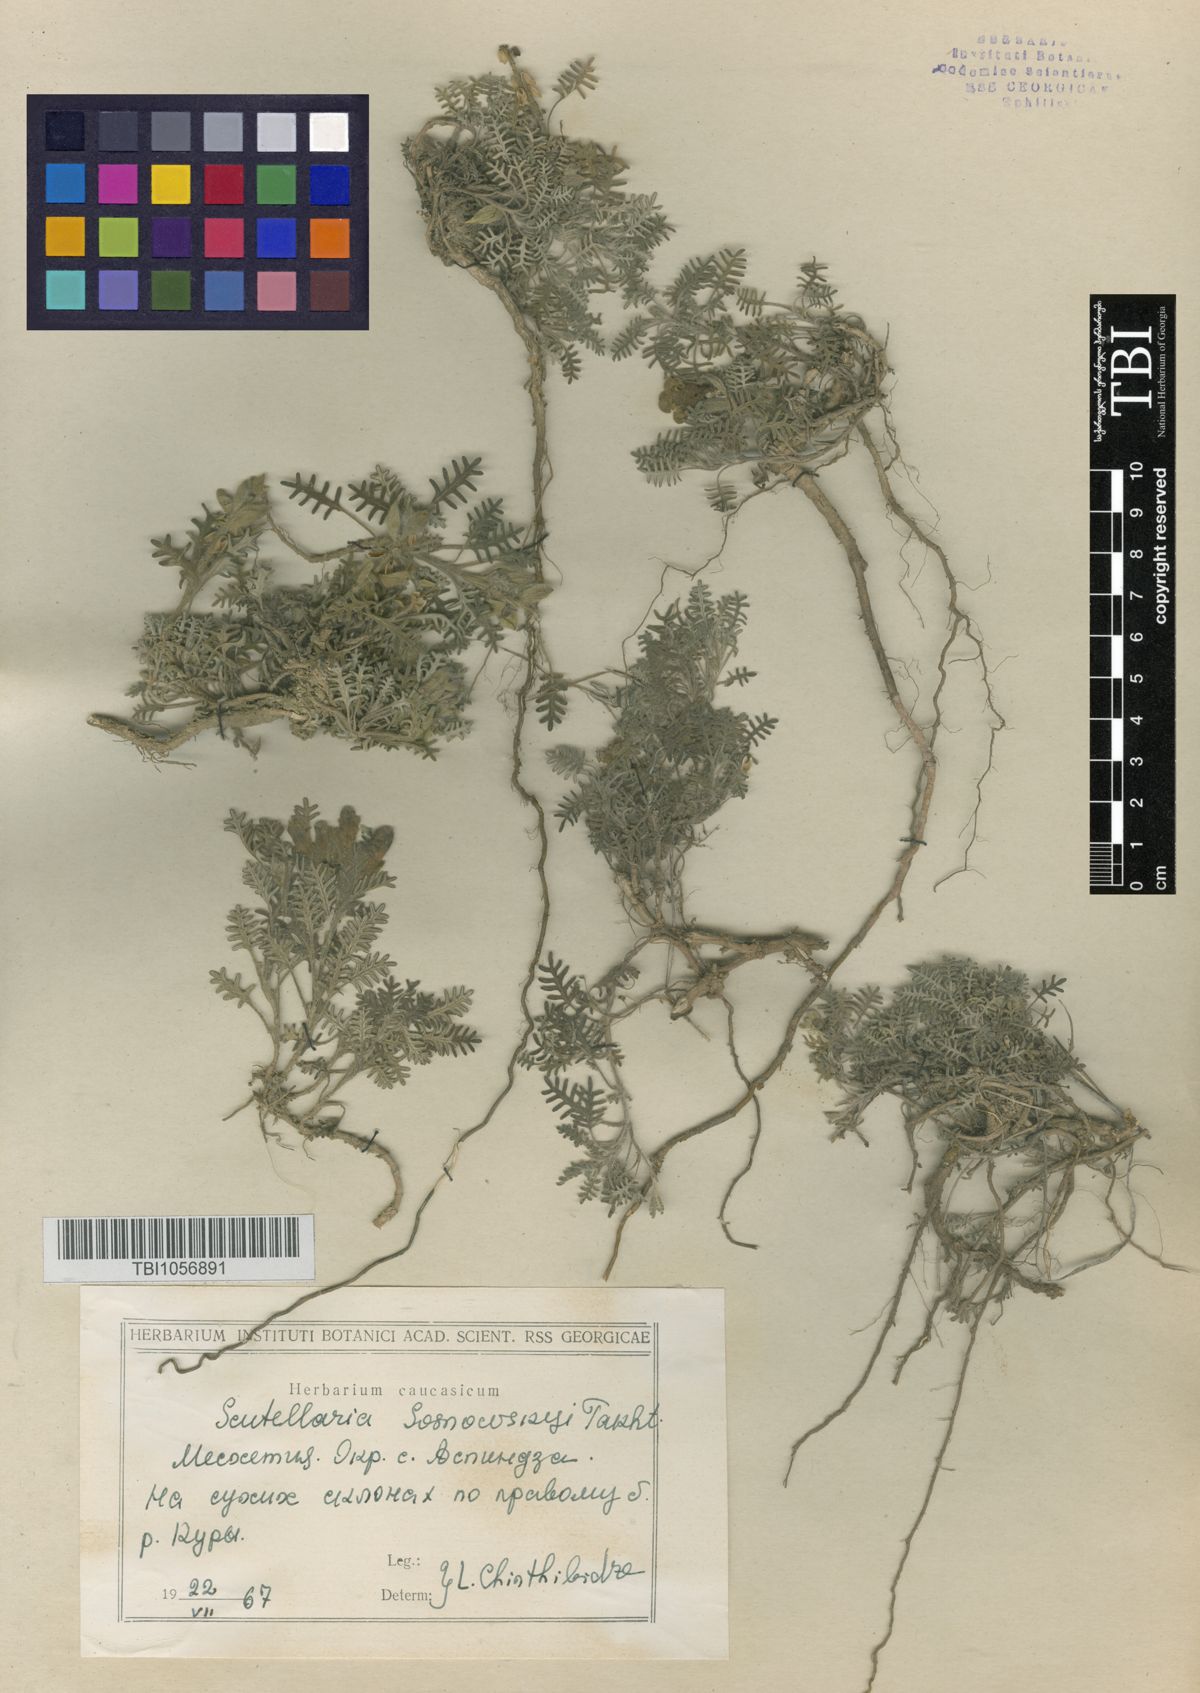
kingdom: Plantae
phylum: Tracheophyta
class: Magnoliopsida
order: Lamiales
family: Lamiaceae
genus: Scutellaria
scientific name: Scutellaria sosnowskyi
